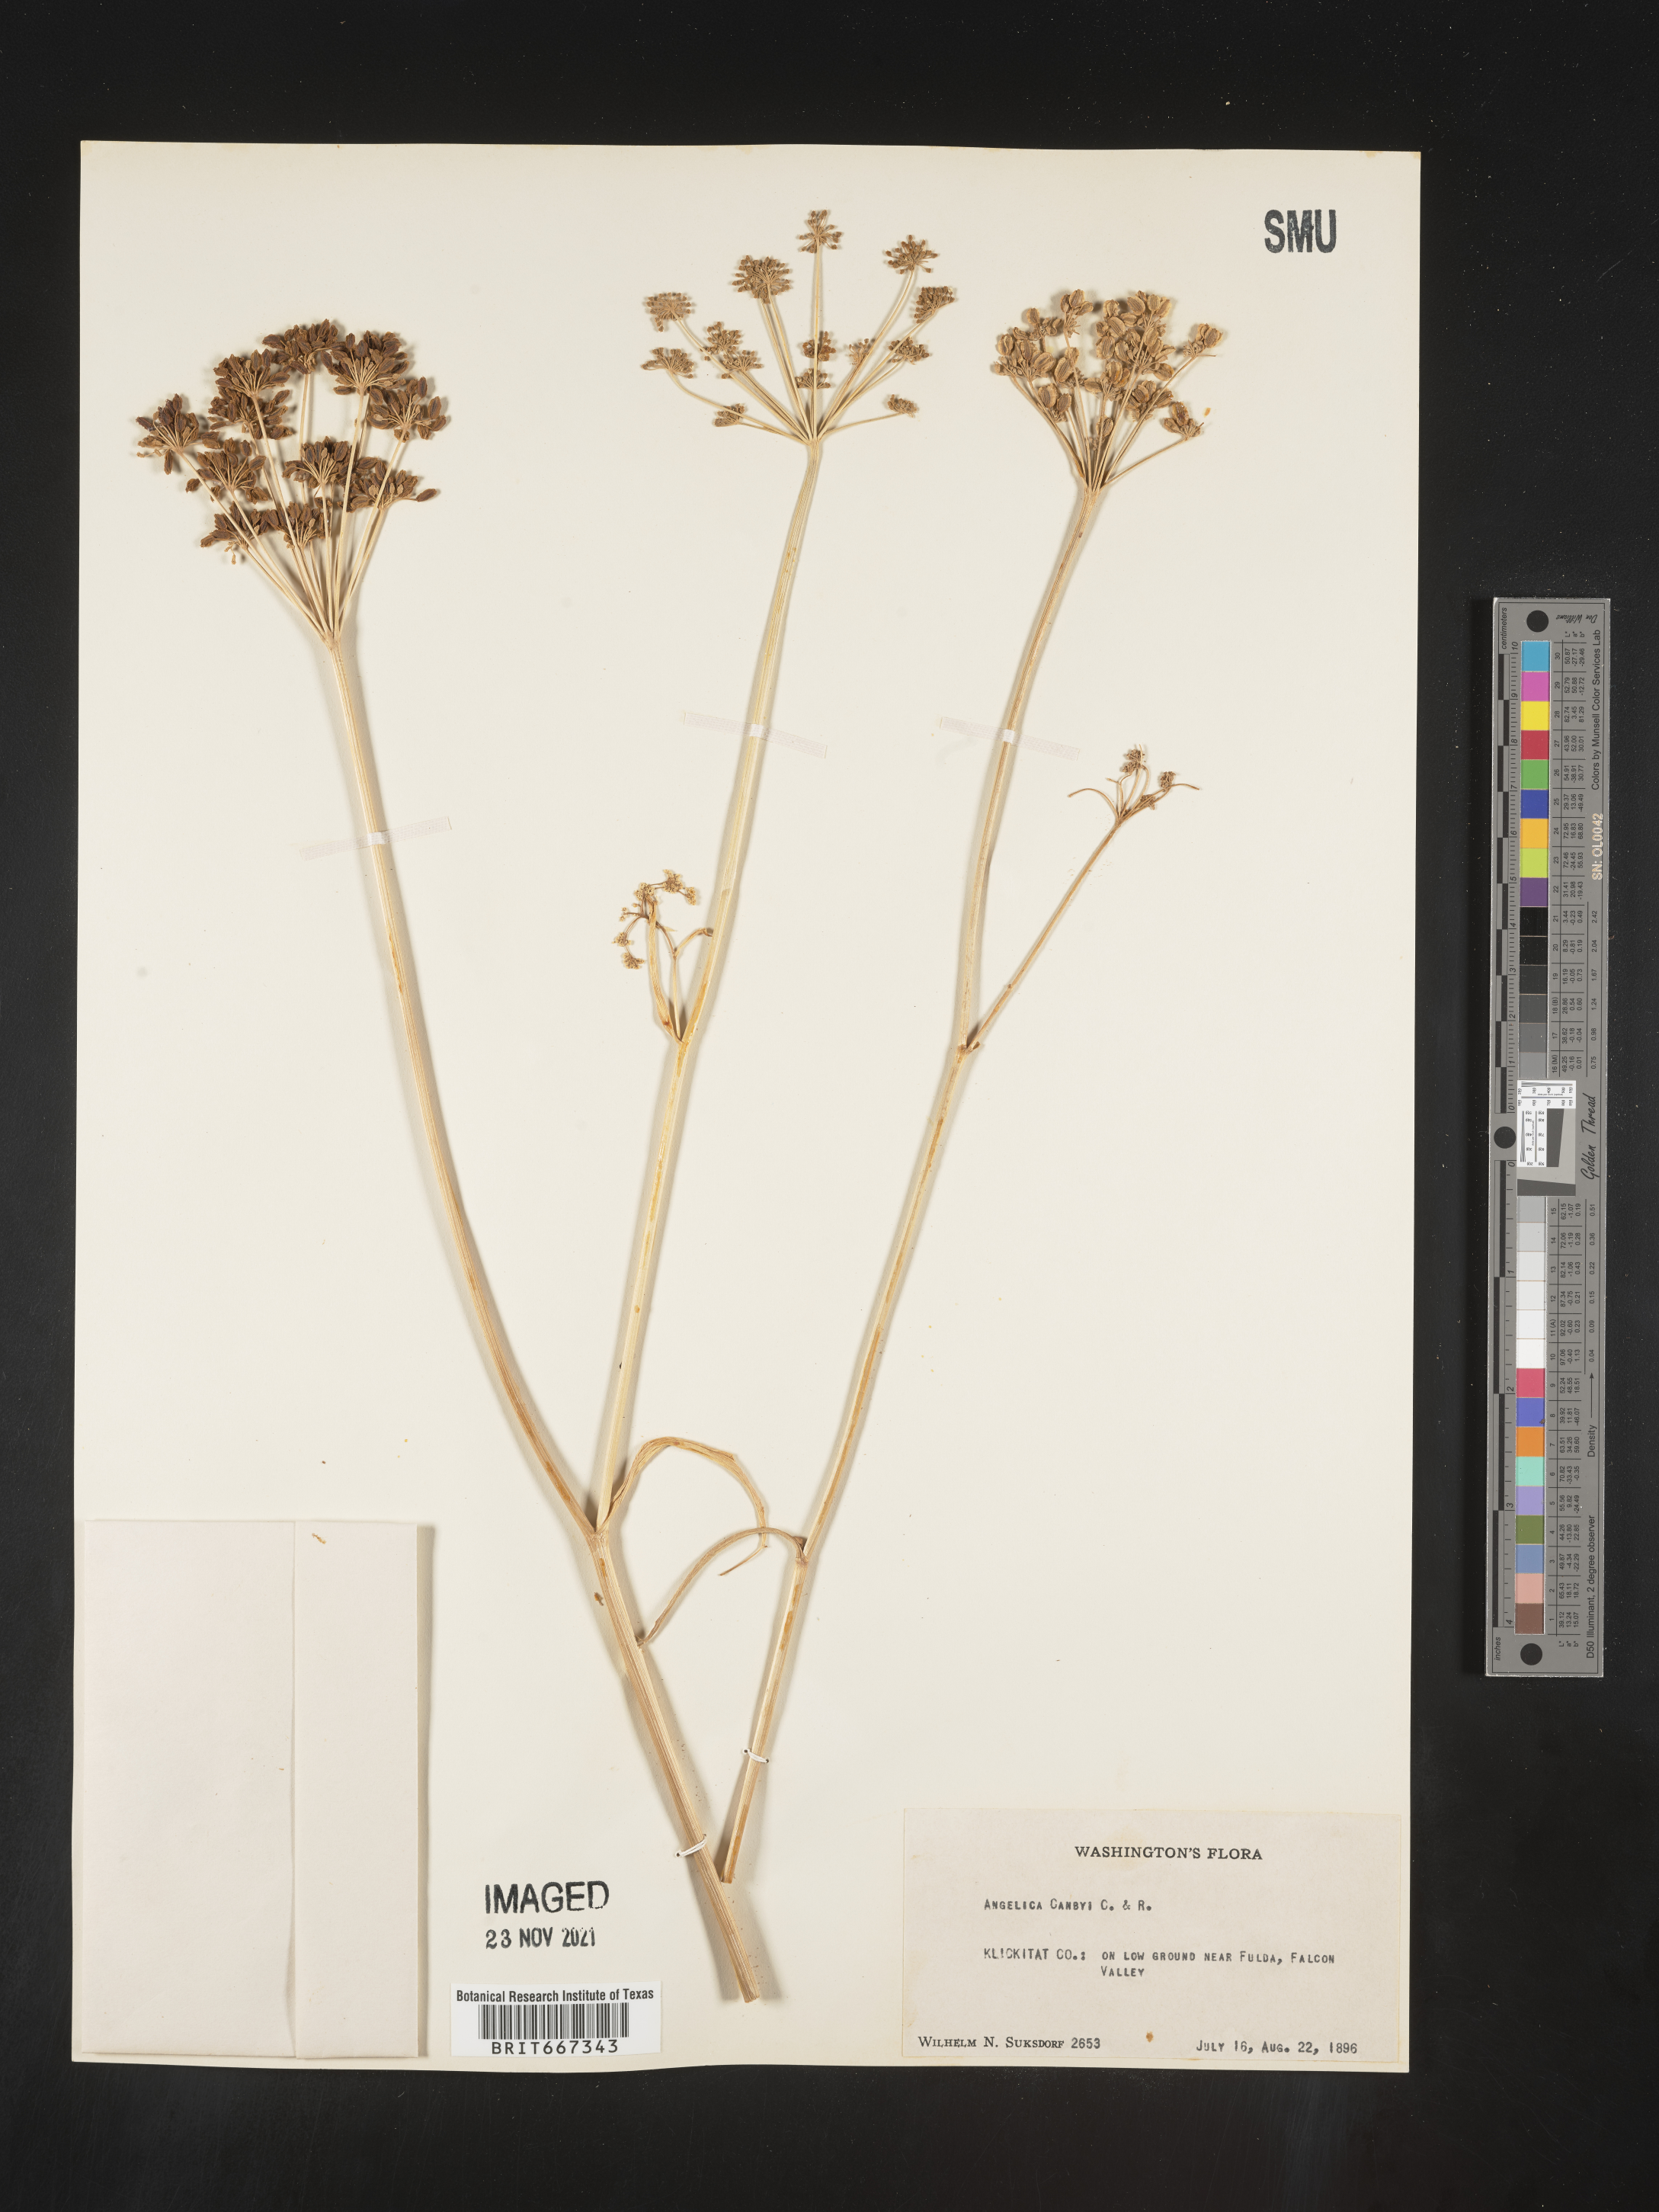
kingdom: Plantae
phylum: Tracheophyta
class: Magnoliopsida
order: Apiales
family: Apiaceae
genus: Angelica
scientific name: Angelica
